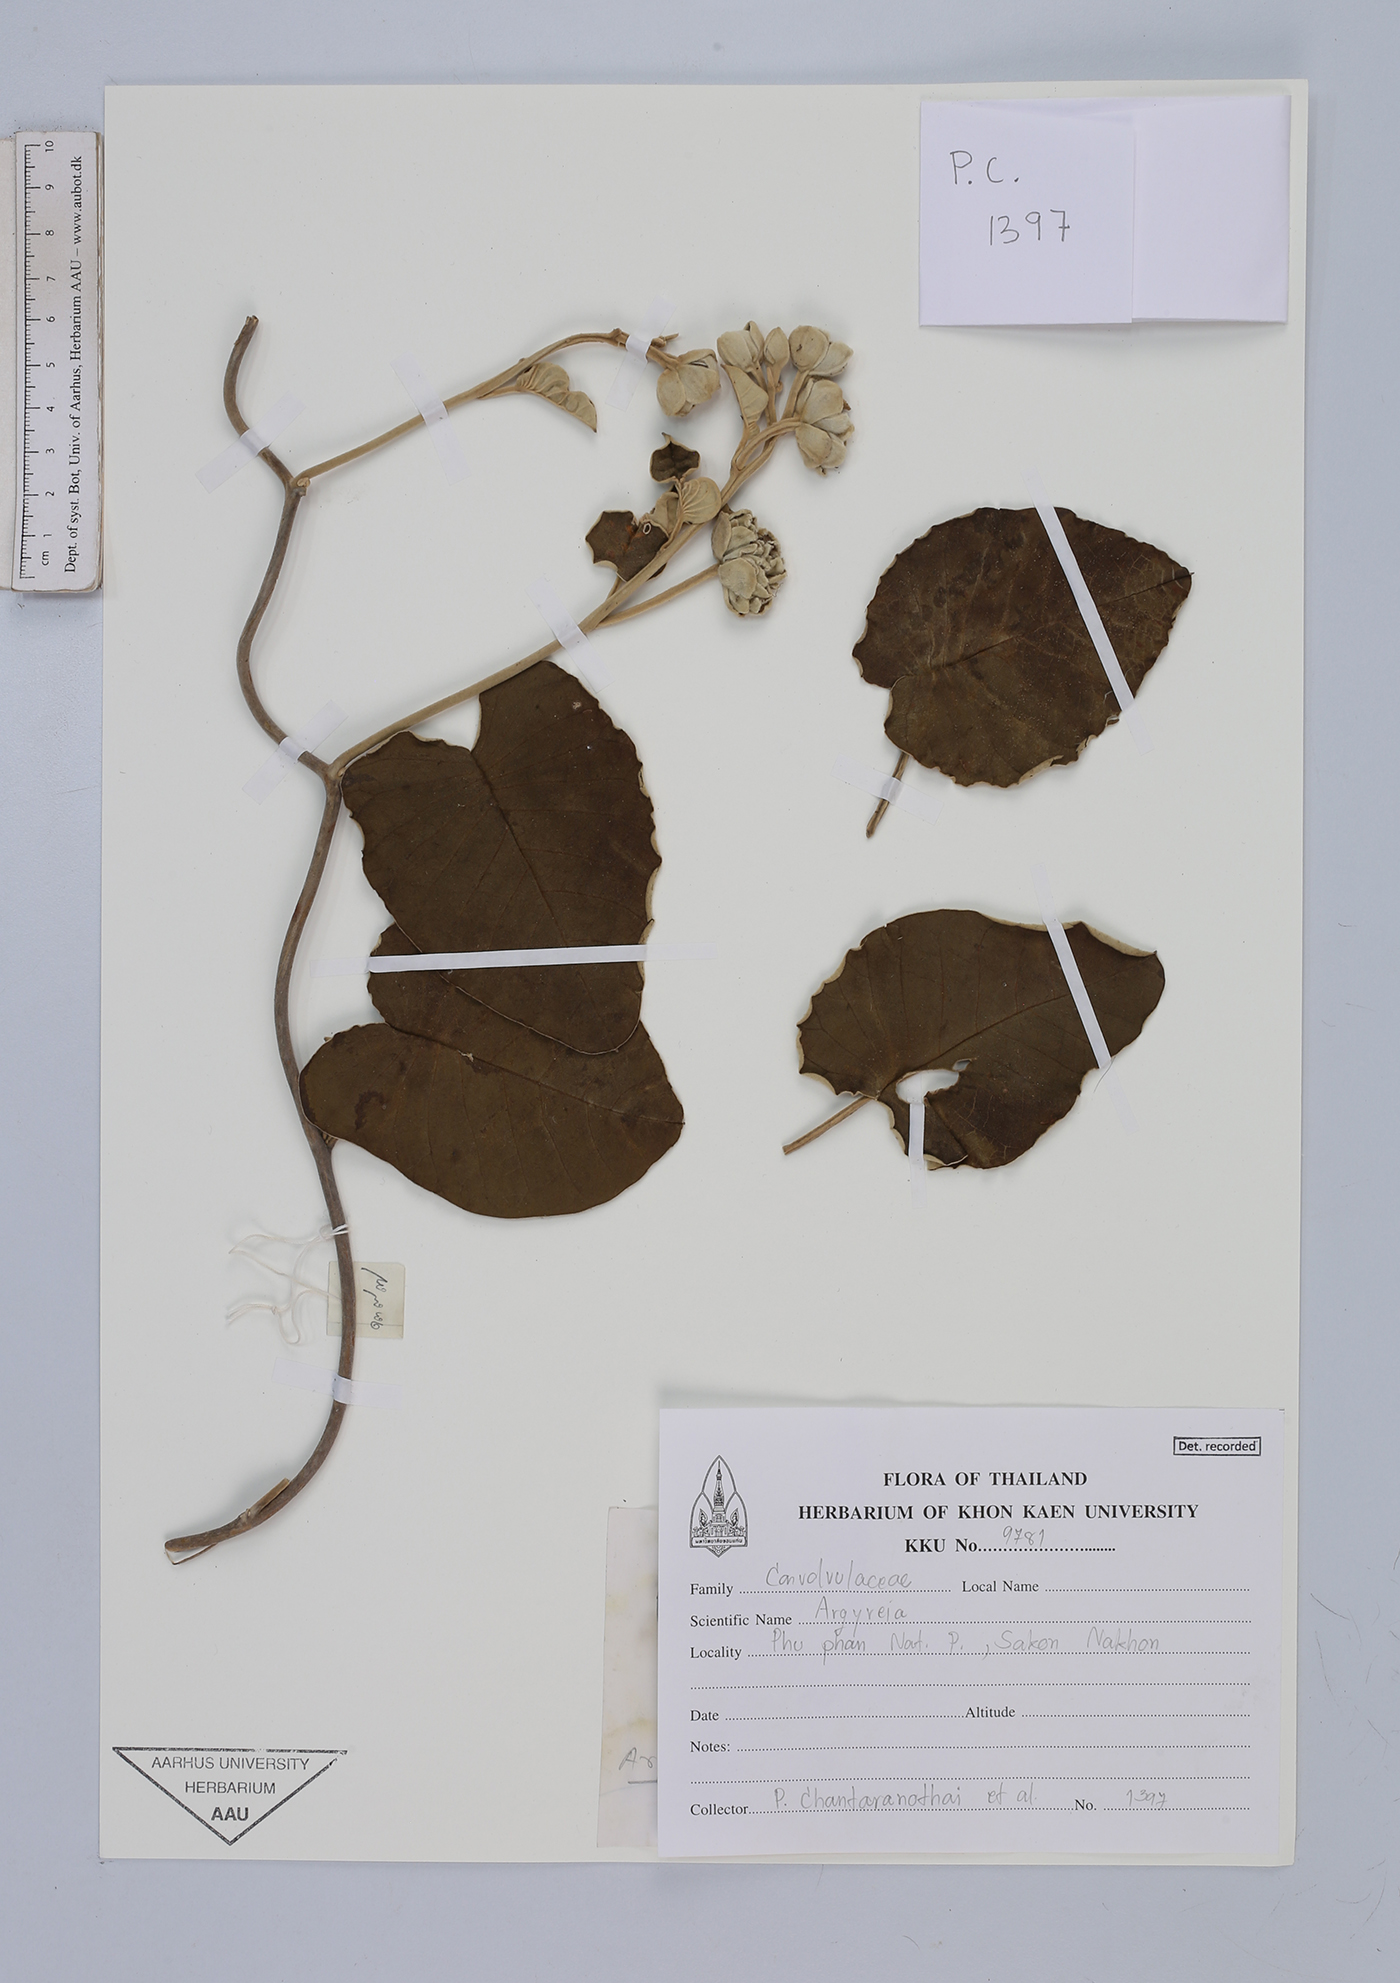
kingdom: Plantae
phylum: Tracheophyta
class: Magnoliopsida
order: Solanales
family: Convolvulaceae
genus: Argyreia
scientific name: Argyreia
